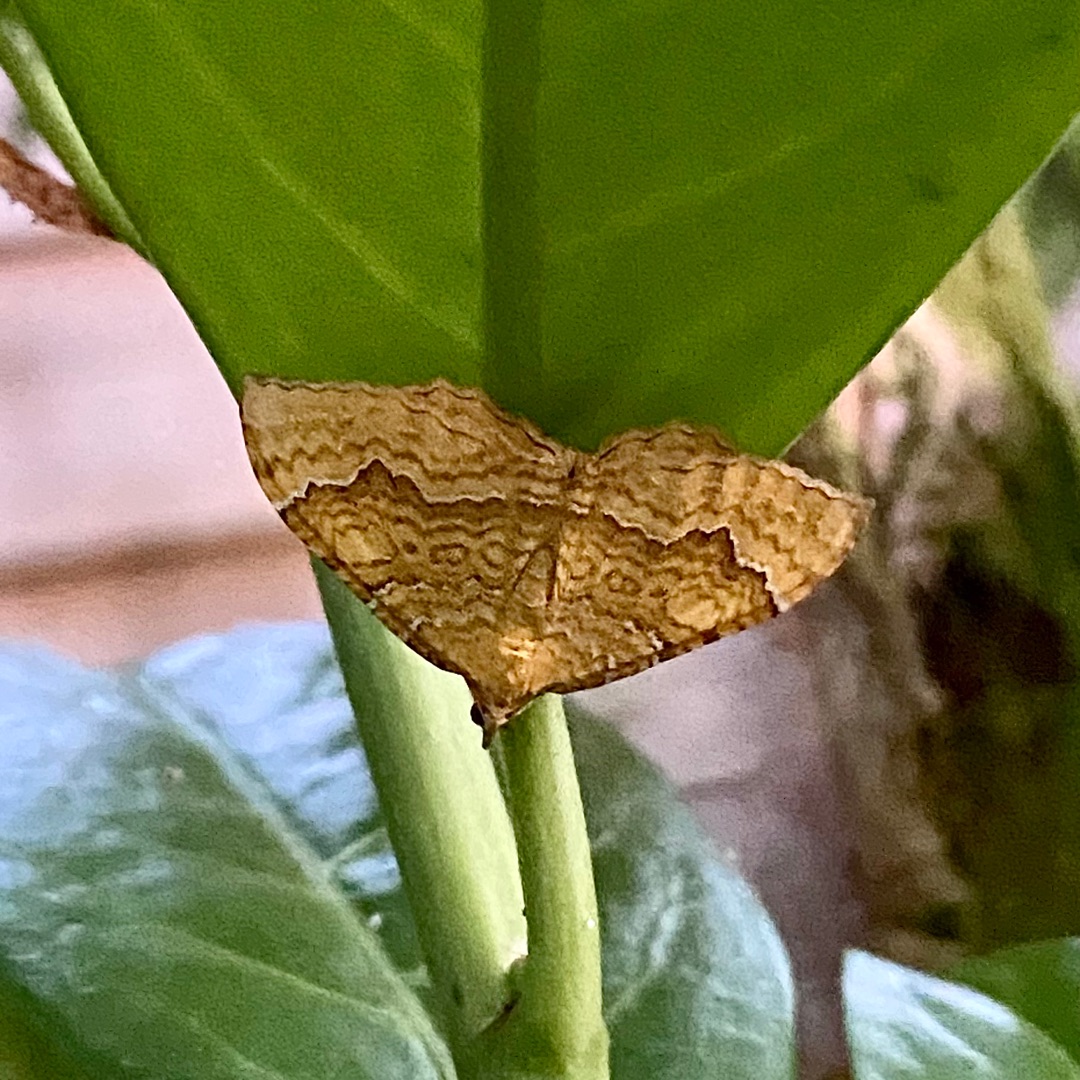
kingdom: Animalia
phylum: Arthropoda
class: Insecta
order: Lepidoptera
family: Geometridae
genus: Camptogramma
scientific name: Camptogramma bilineata
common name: Okkergul bladmåler
